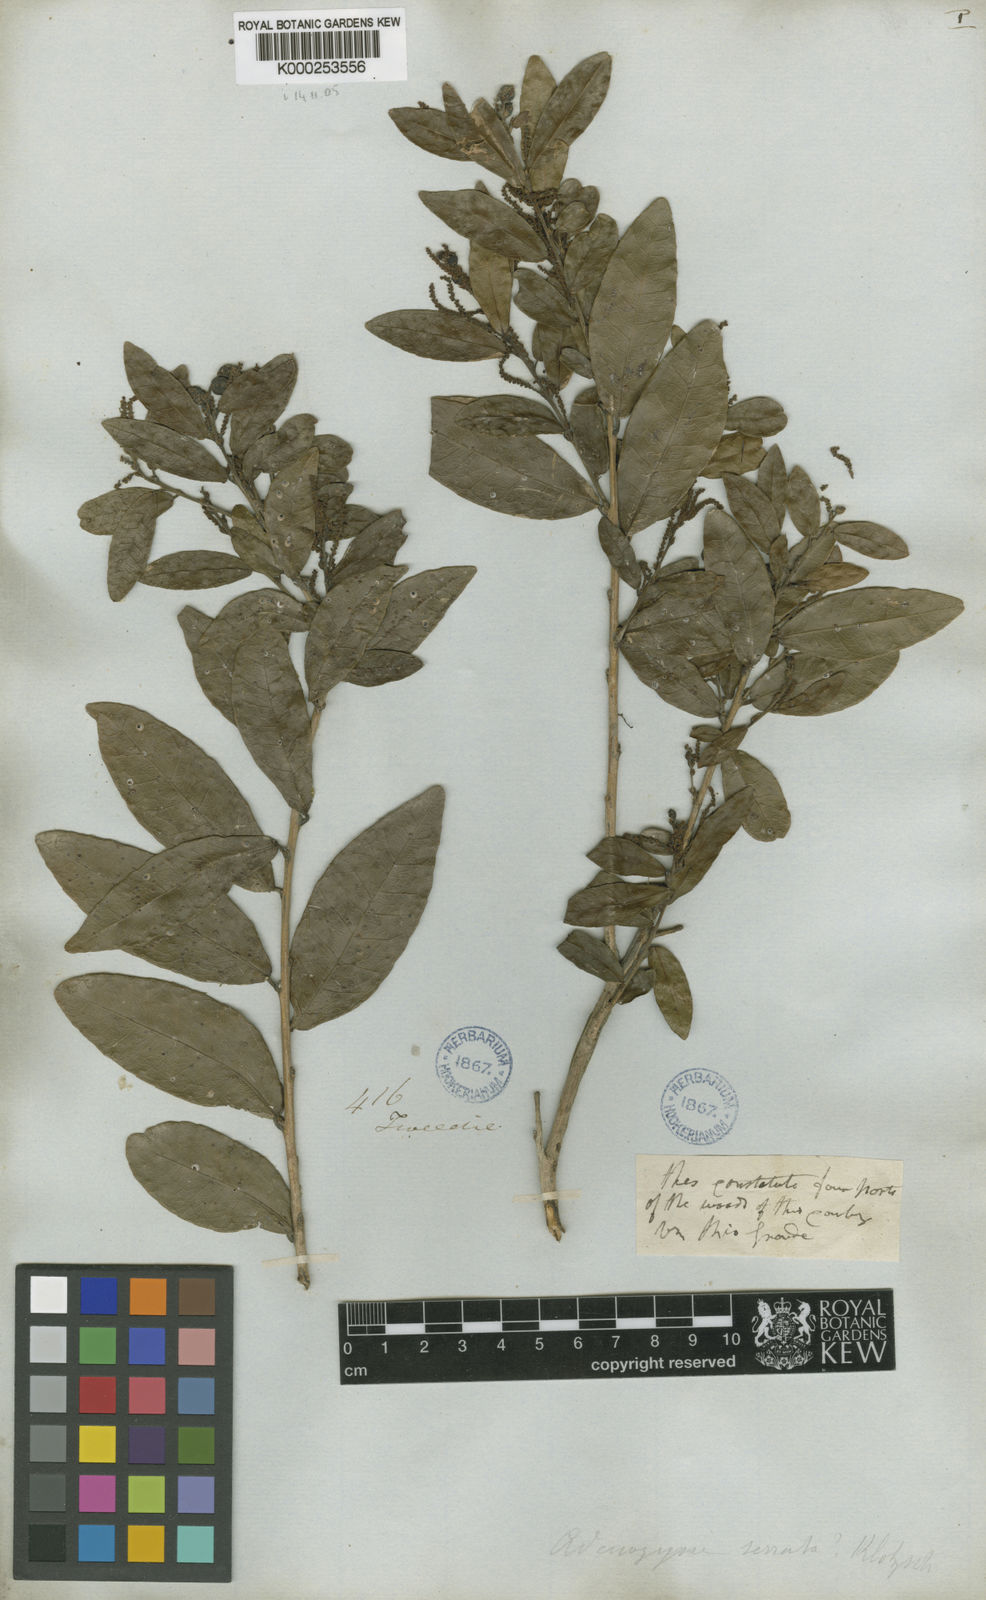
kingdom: Plantae
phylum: Tracheophyta
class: Magnoliopsida
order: Malpighiales
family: Euphorbiaceae
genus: Sebastiania
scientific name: Sebastiania
